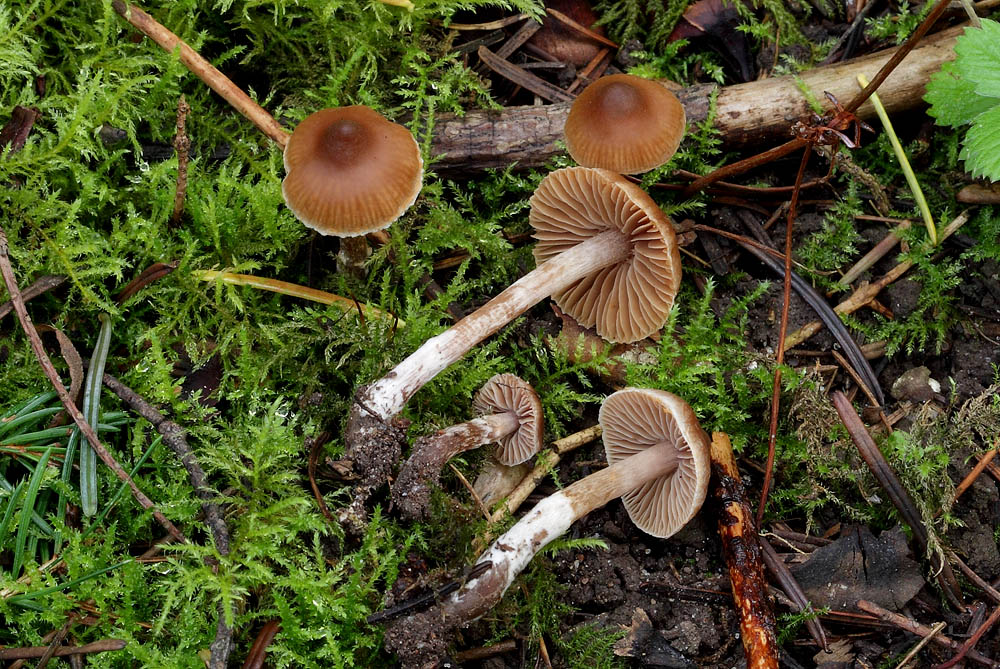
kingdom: Fungi
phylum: Basidiomycota
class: Agaricomycetes
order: Agaricales
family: Cortinariaceae
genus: Cortinarius
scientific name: Cortinarius russulaespermus
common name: finstribet slørhat
